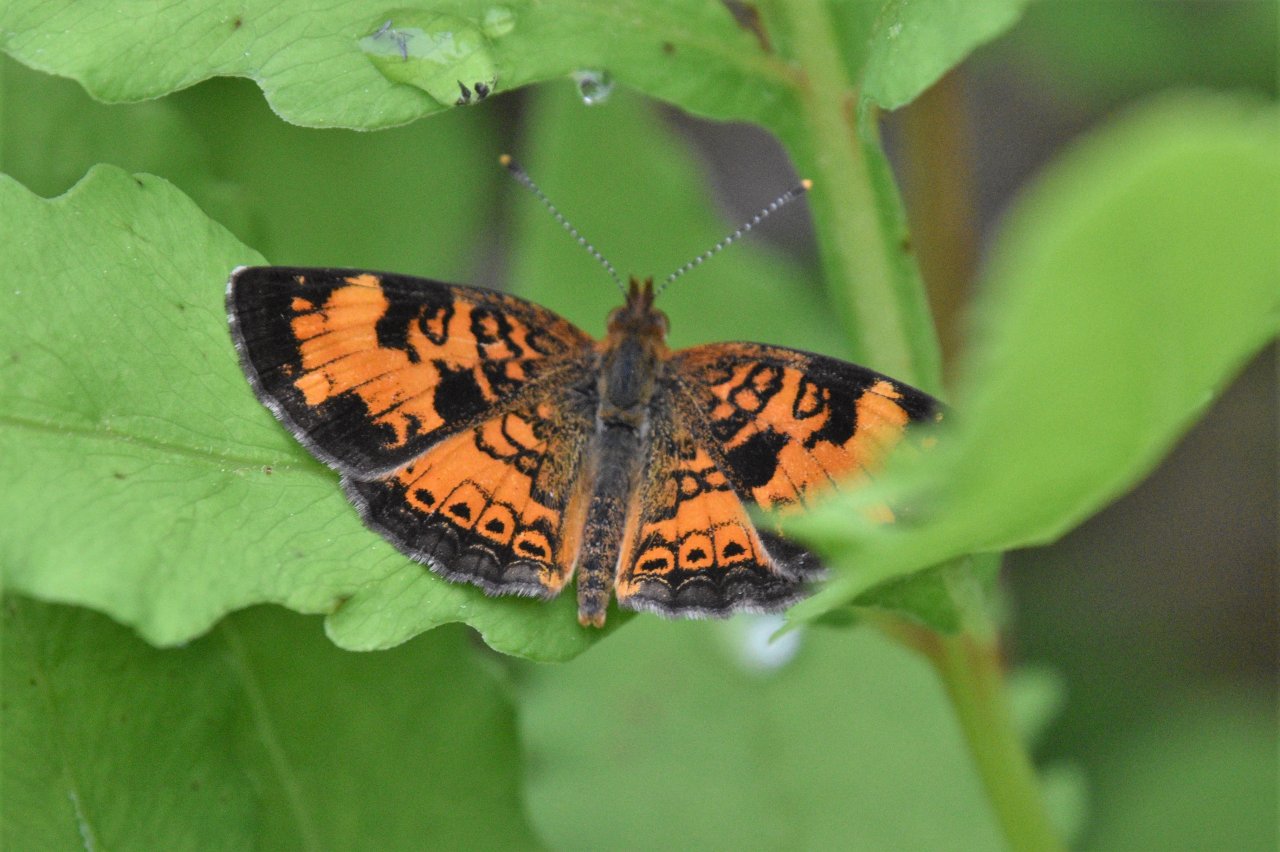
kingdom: Animalia
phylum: Arthropoda
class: Insecta
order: Lepidoptera
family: Nymphalidae
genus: Phyciodes
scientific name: Phyciodes tharos
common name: Northern Crescent
